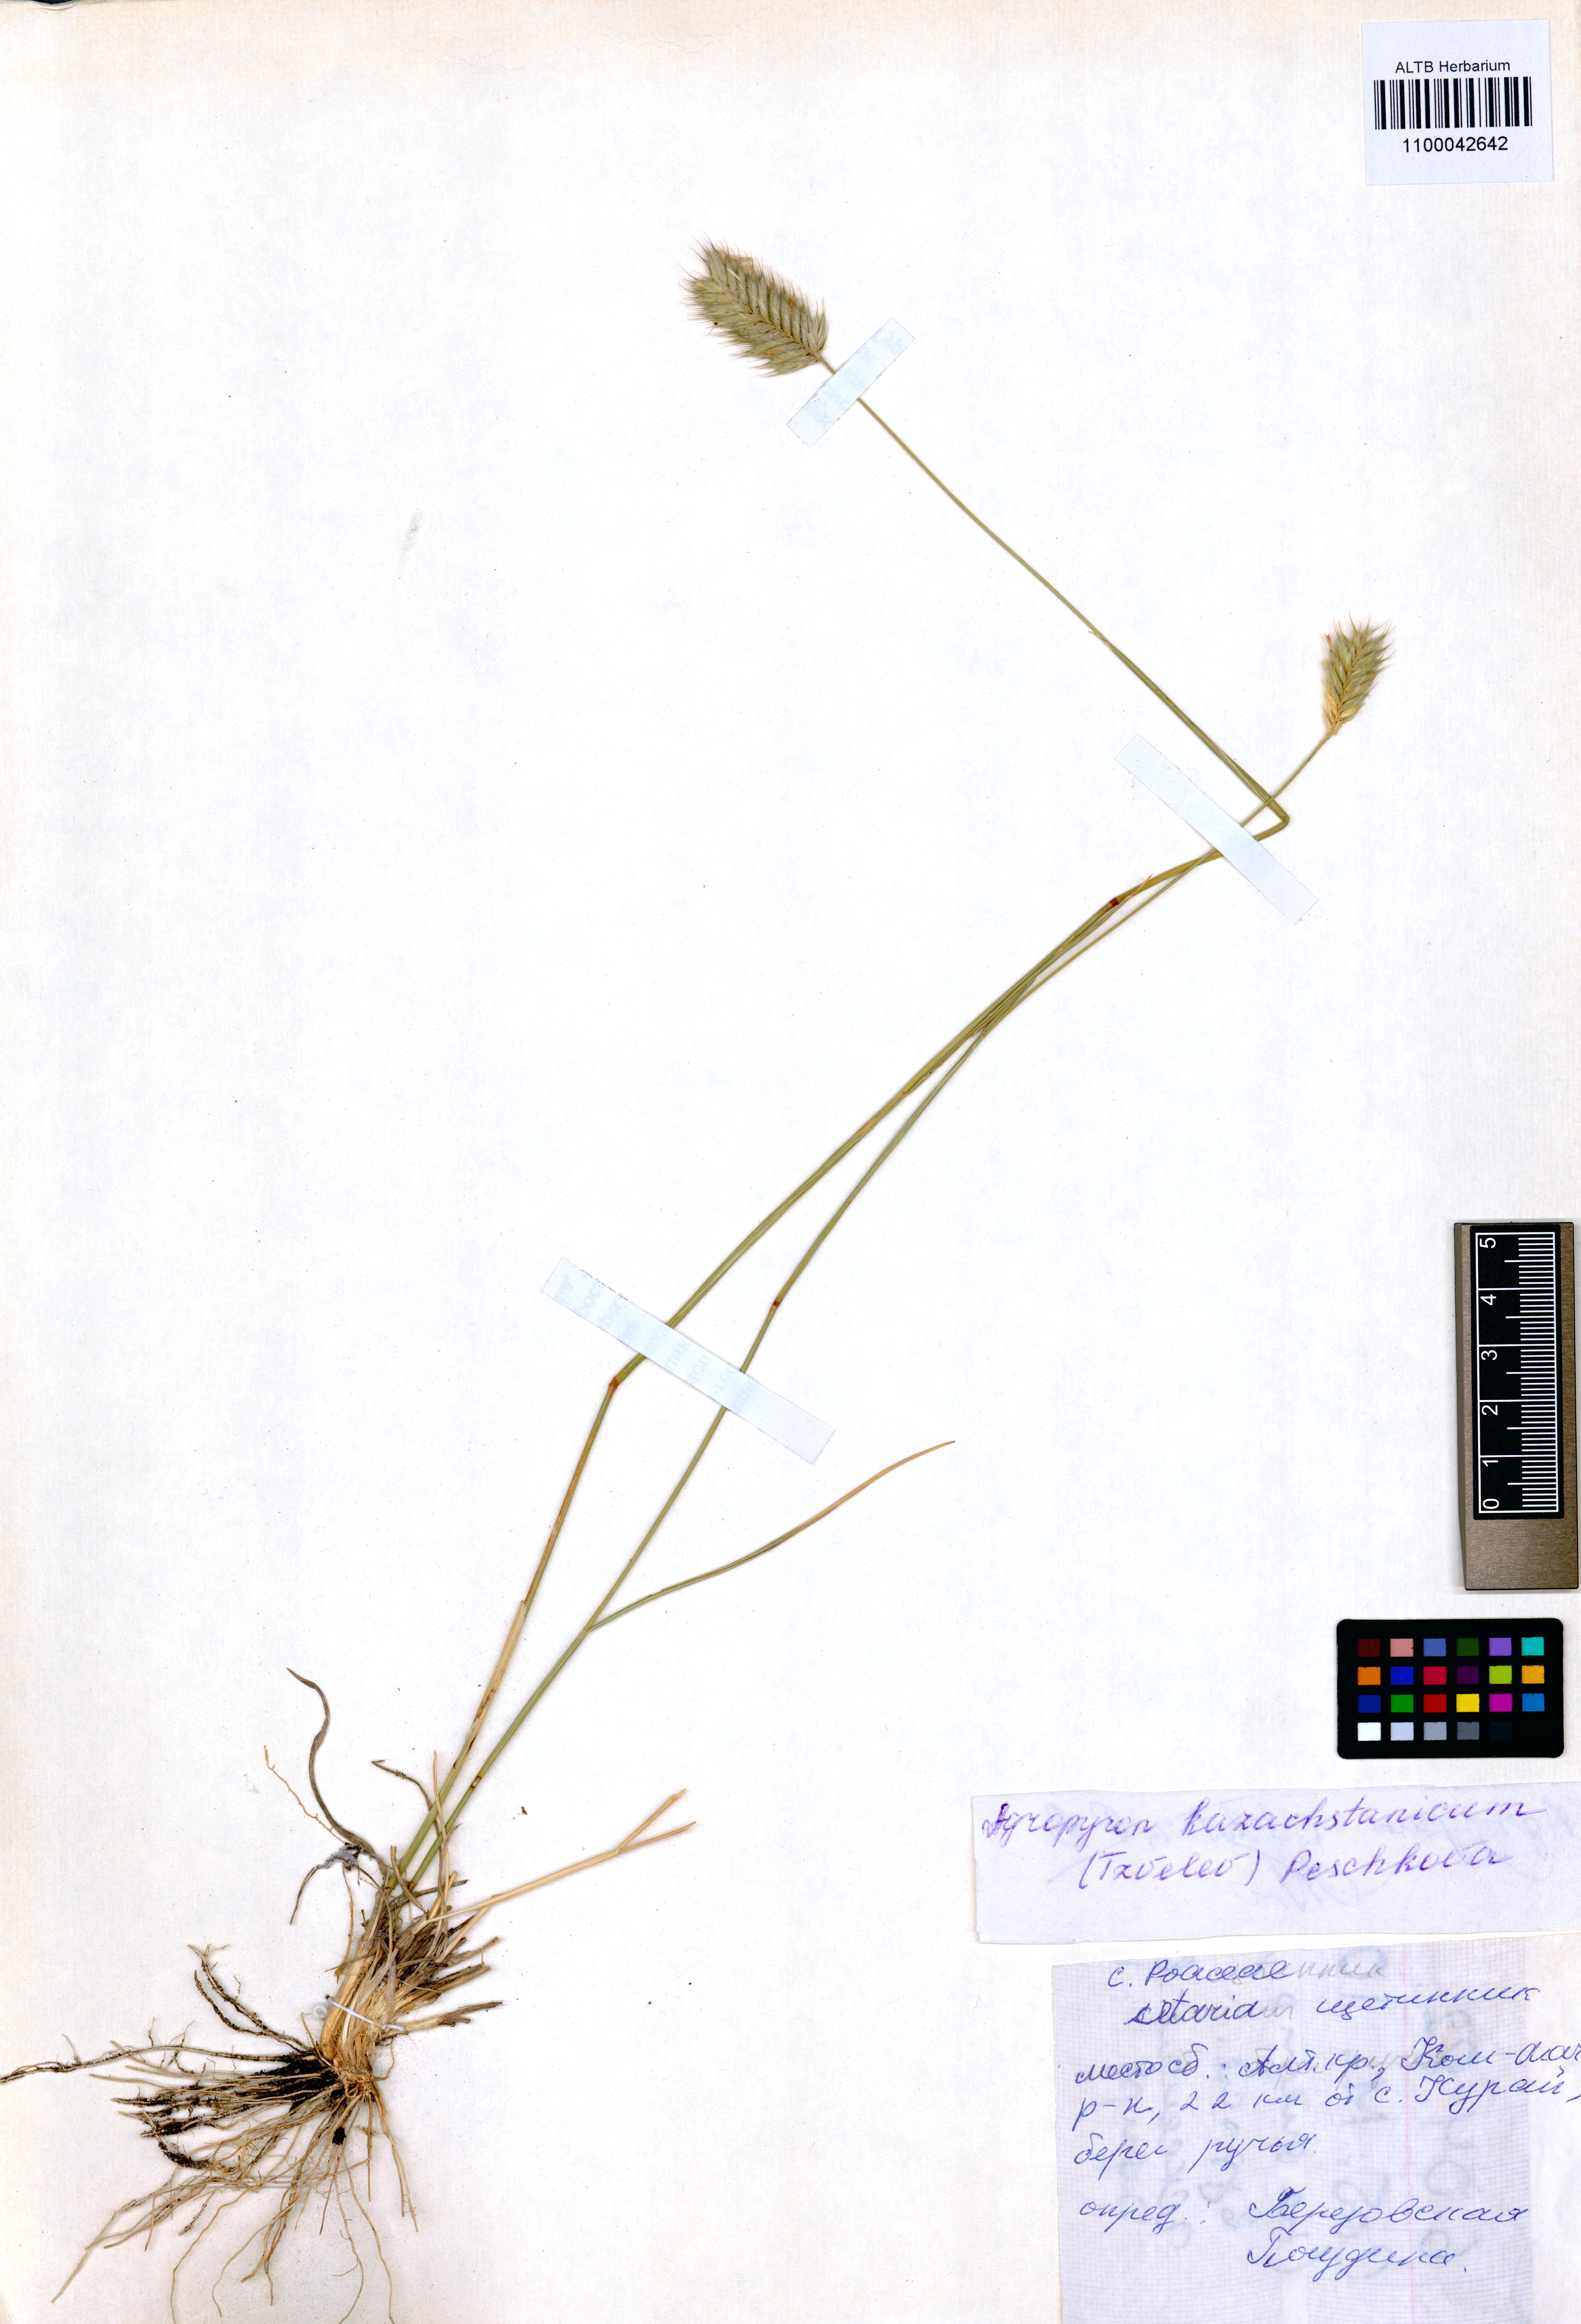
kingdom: Plantae
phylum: Tracheophyta
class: Liliopsida
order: Poales
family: Poaceae
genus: Agropyron
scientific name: Agropyron cristatum
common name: Crested wheatgrass
